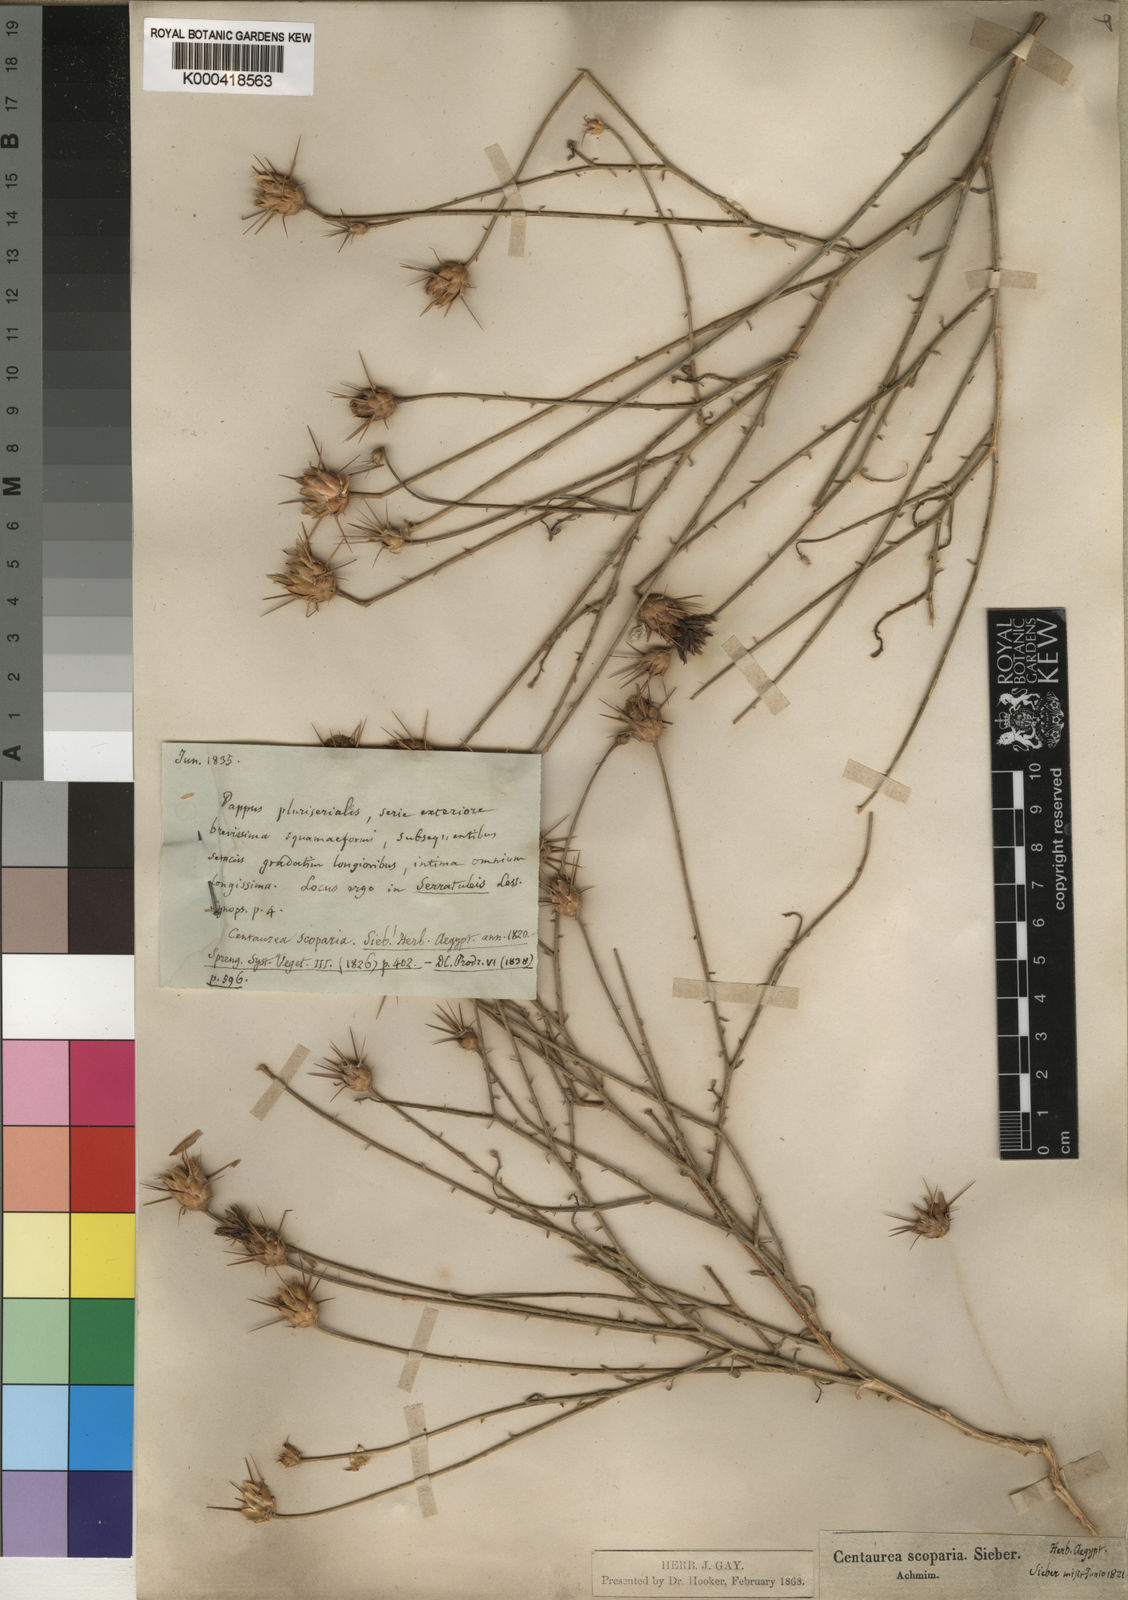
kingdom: Plantae
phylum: Tracheophyta
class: Magnoliopsida
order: Asterales
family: Asteraceae
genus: Centaurea
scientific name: Centaurea
